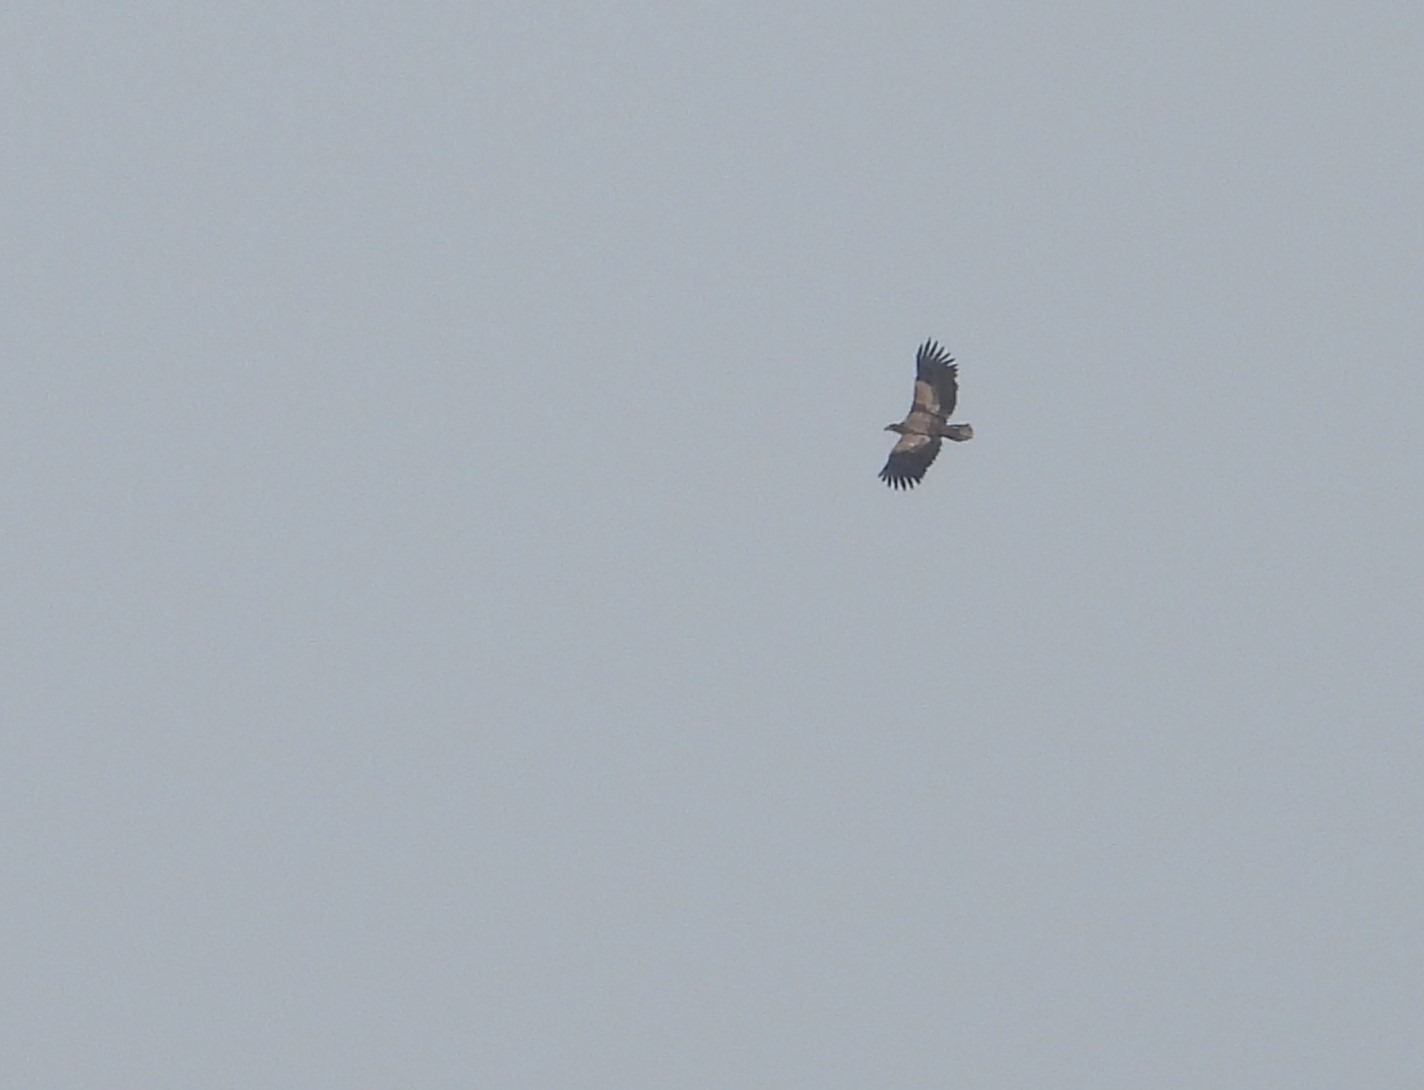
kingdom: Animalia
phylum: Chordata
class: Aves
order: Accipitriformes
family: Accipitridae
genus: Haliaeetus
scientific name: Haliaeetus albicilla
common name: Havørn
